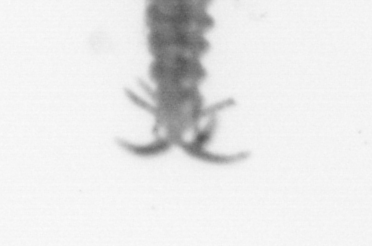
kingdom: Animalia
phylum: Annelida
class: Polychaeta
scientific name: Polychaeta
